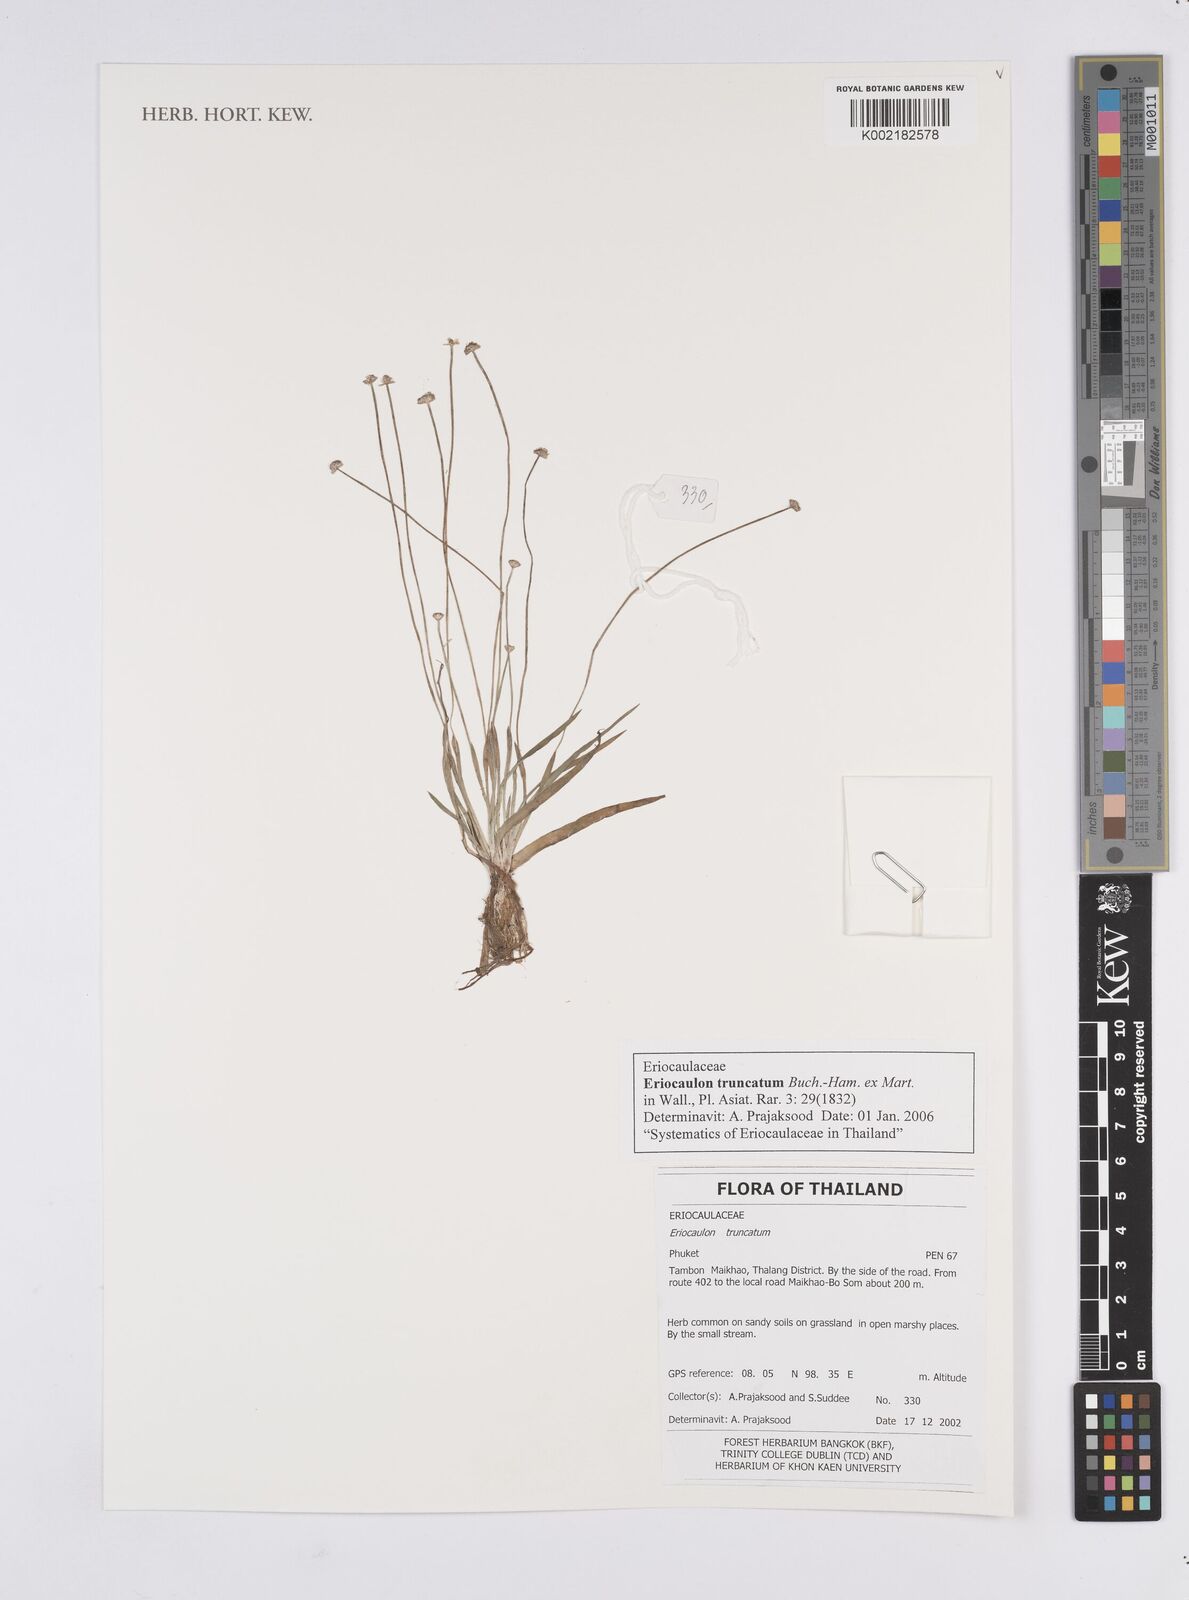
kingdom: Plantae
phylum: Tracheophyta
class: Liliopsida
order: Poales
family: Eriocaulaceae
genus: Eriocaulon
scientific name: Eriocaulon truncatum
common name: Short pipe-wort
